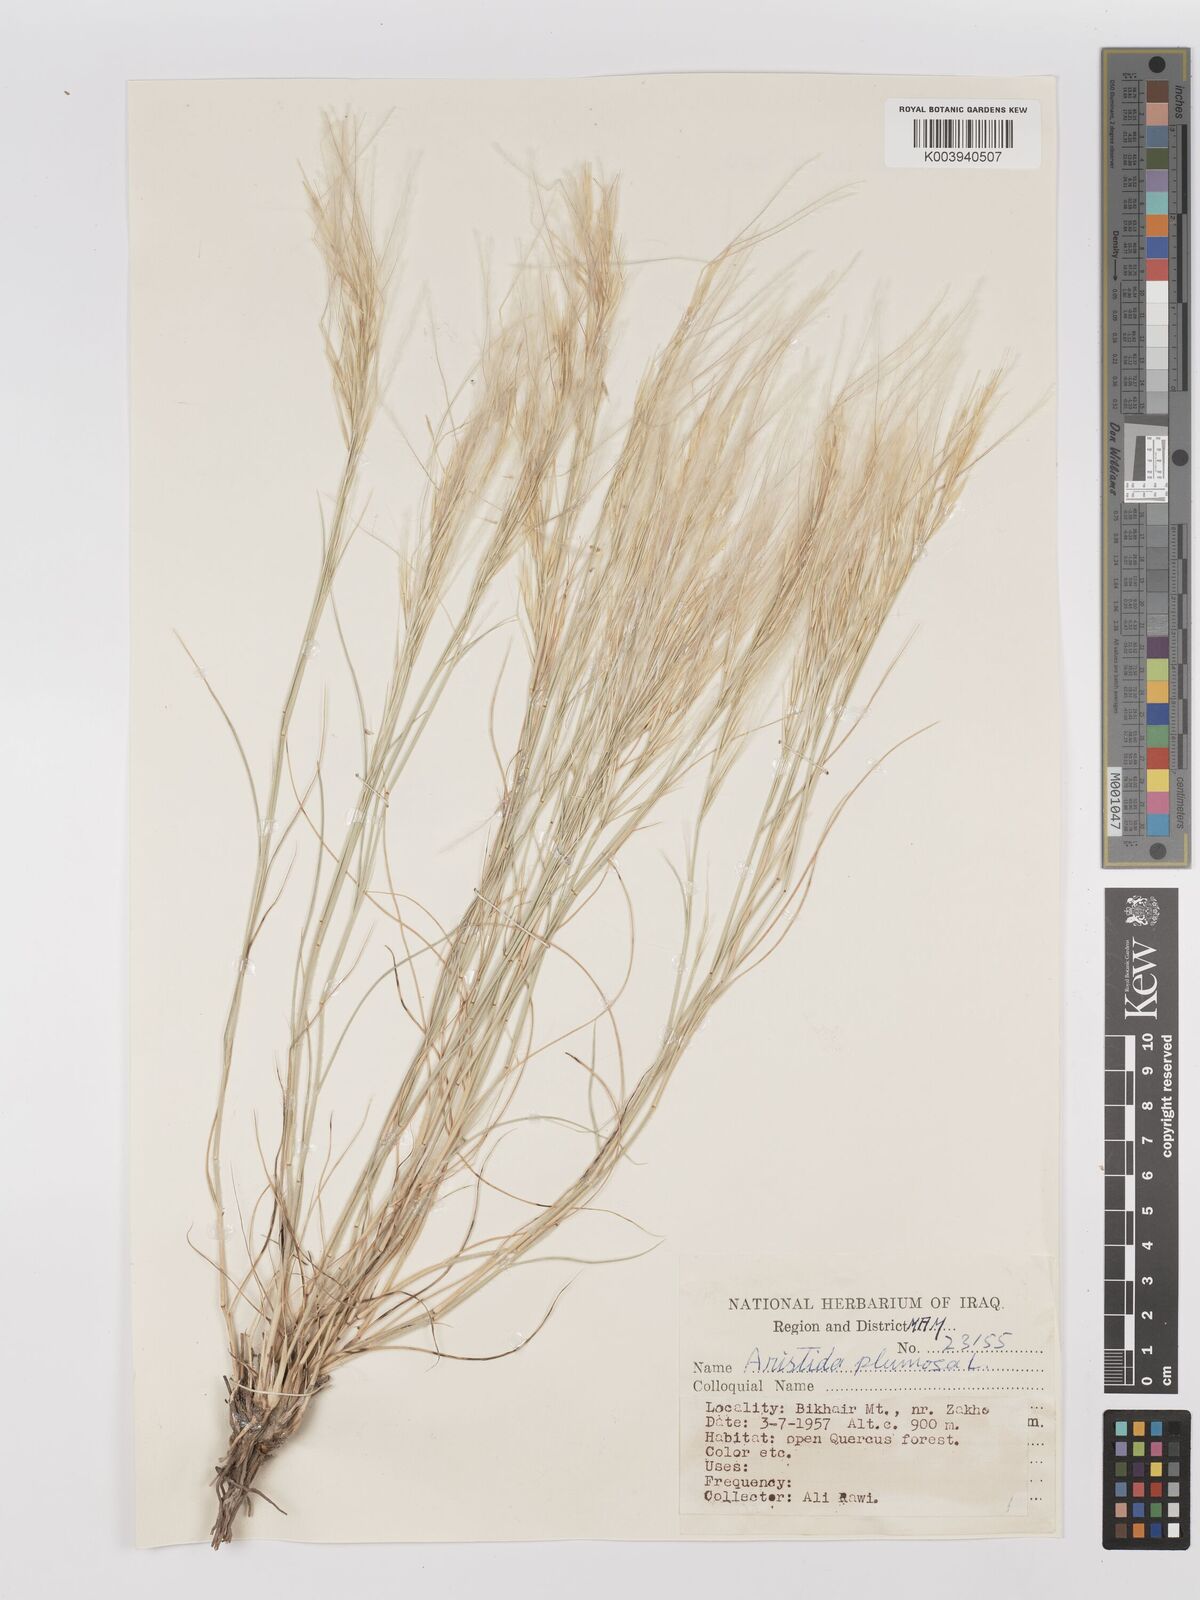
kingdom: Plantae
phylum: Tracheophyta
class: Liliopsida
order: Poales
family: Poaceae
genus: Stipagrostis
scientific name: Stipagrostis plumosa
